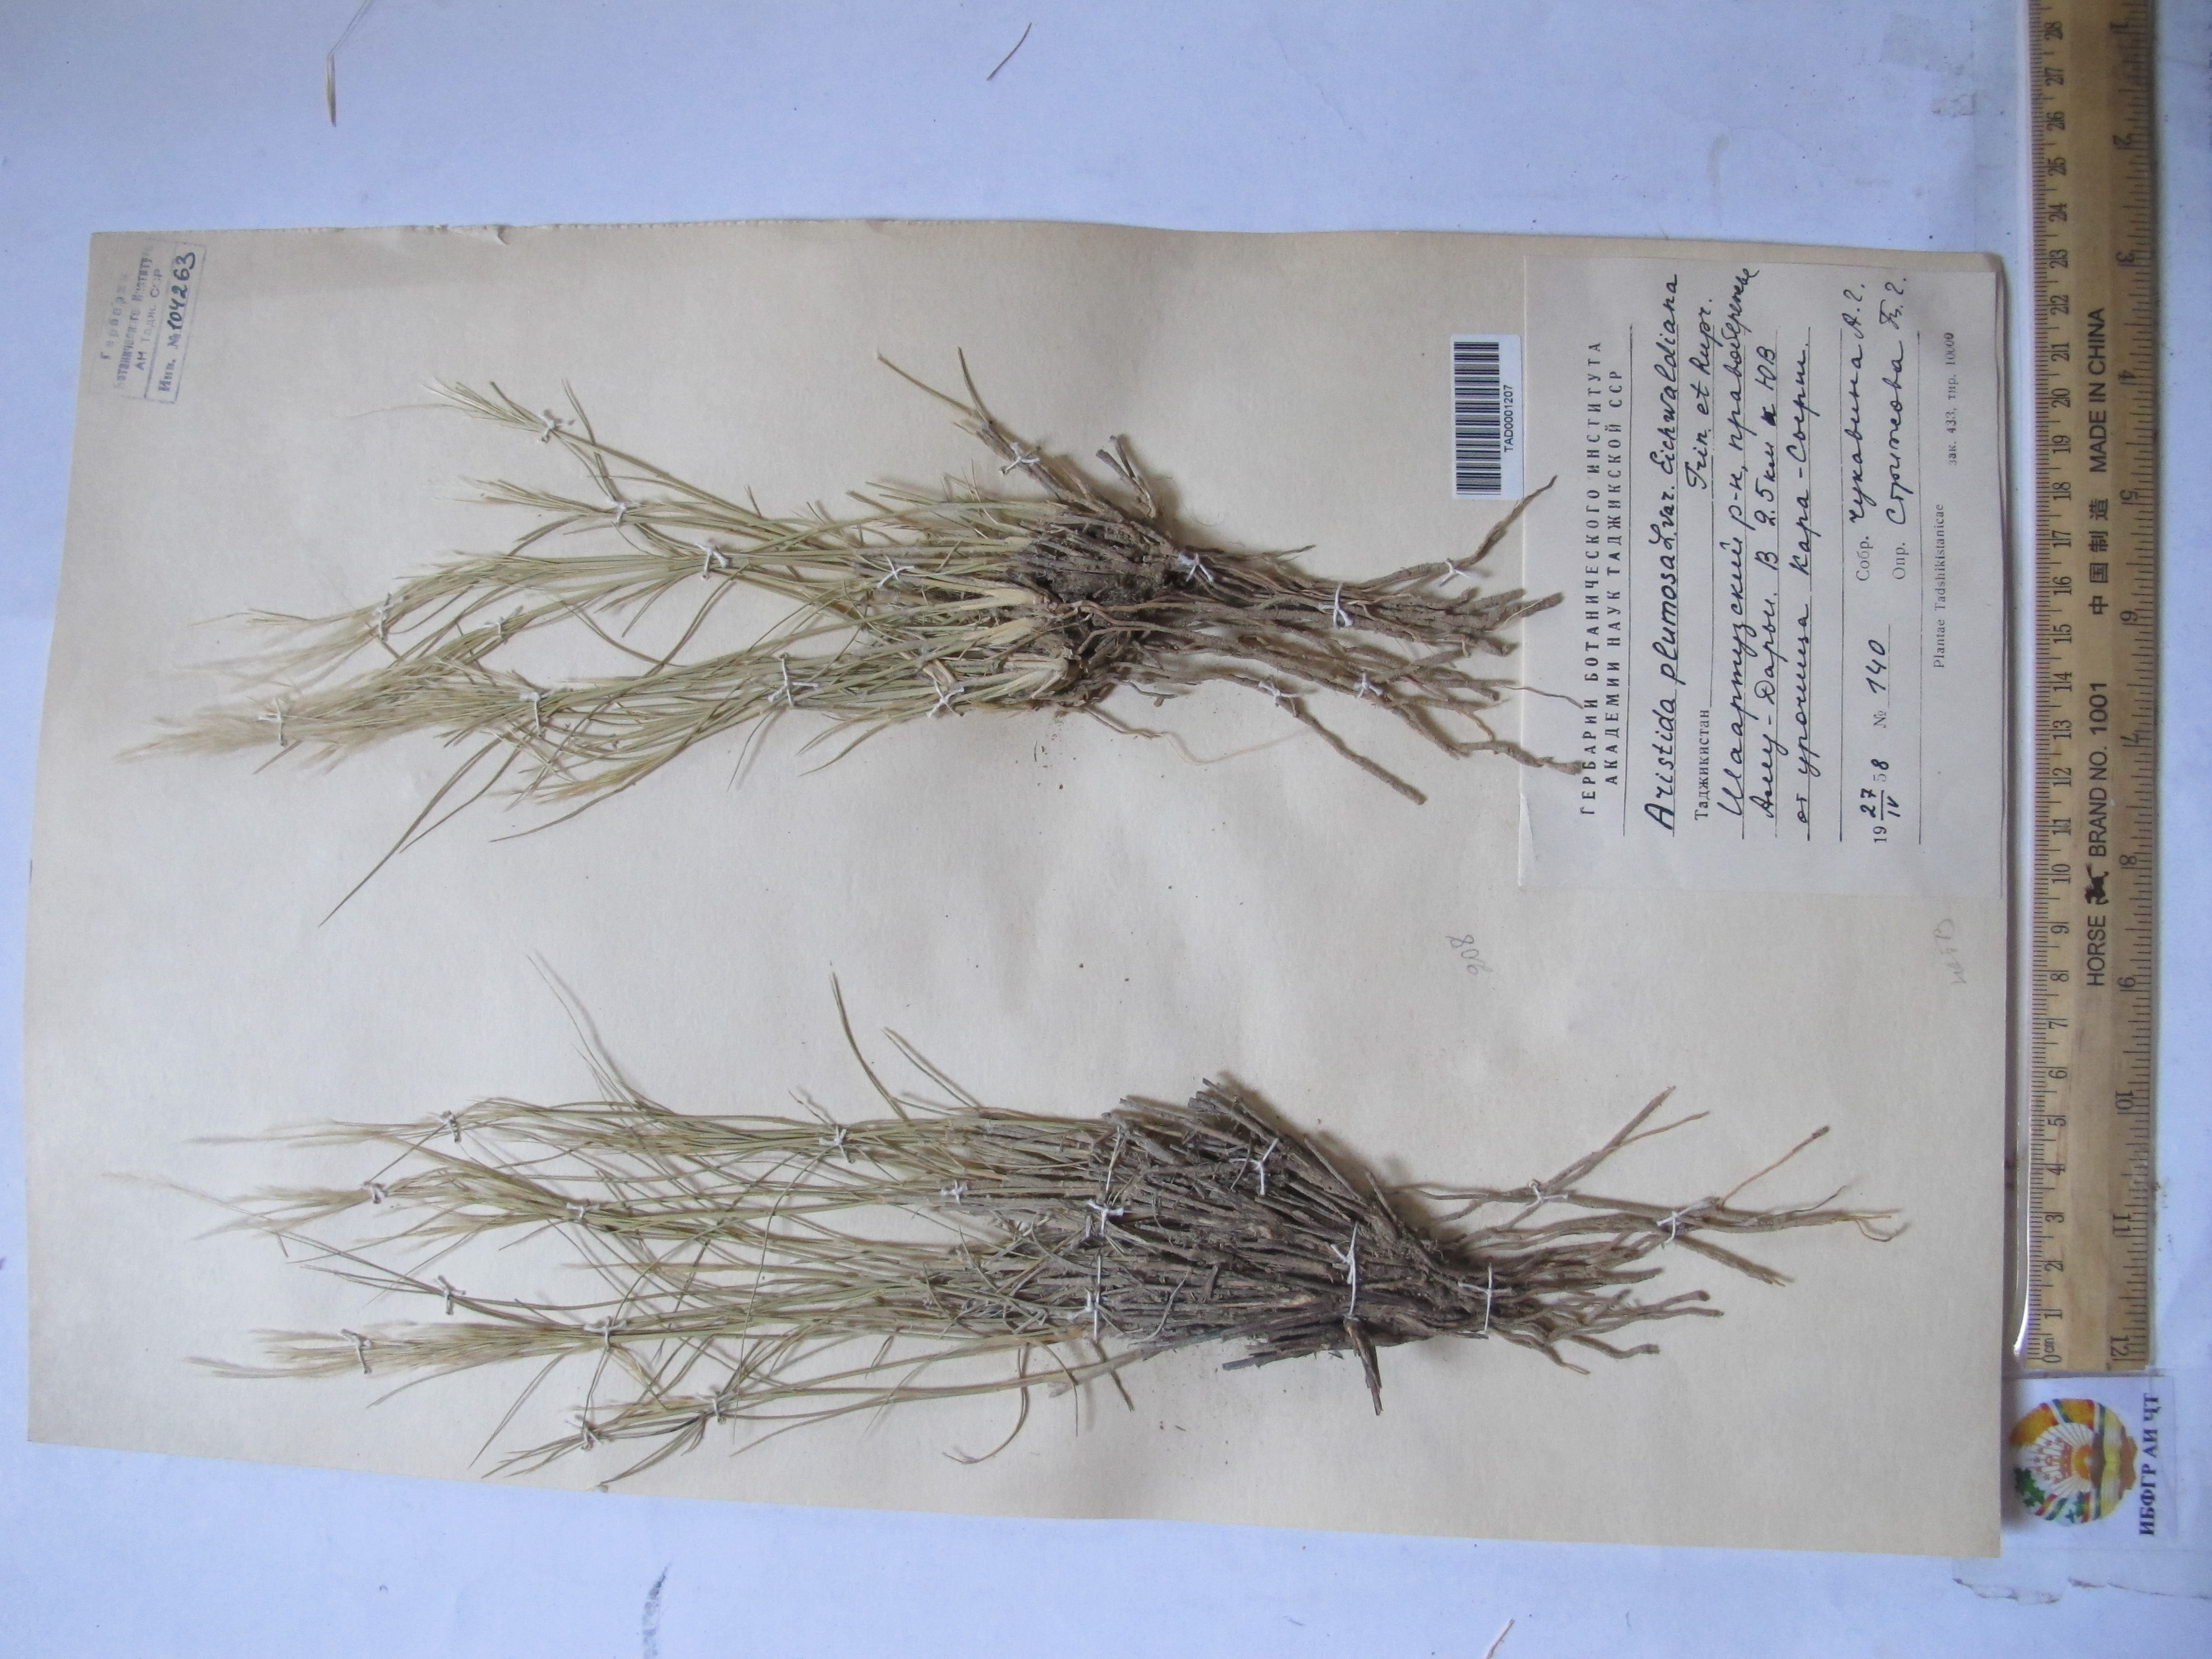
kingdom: Plantae
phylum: Tracheophyta
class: Liliopsida
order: Poales
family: Poaceae
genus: Stipagrostis
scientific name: Stipagrostis plumosa
